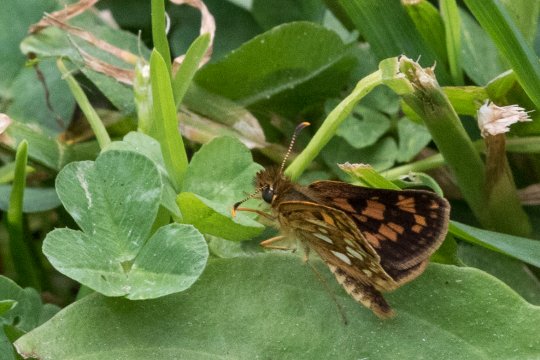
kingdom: Animalia
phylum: Arthropoda
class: Insecta
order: Lepidoptera
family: Hesperiidae
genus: Carterocephalus
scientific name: Carterocephalus palaemon
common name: Chequered Skipper
